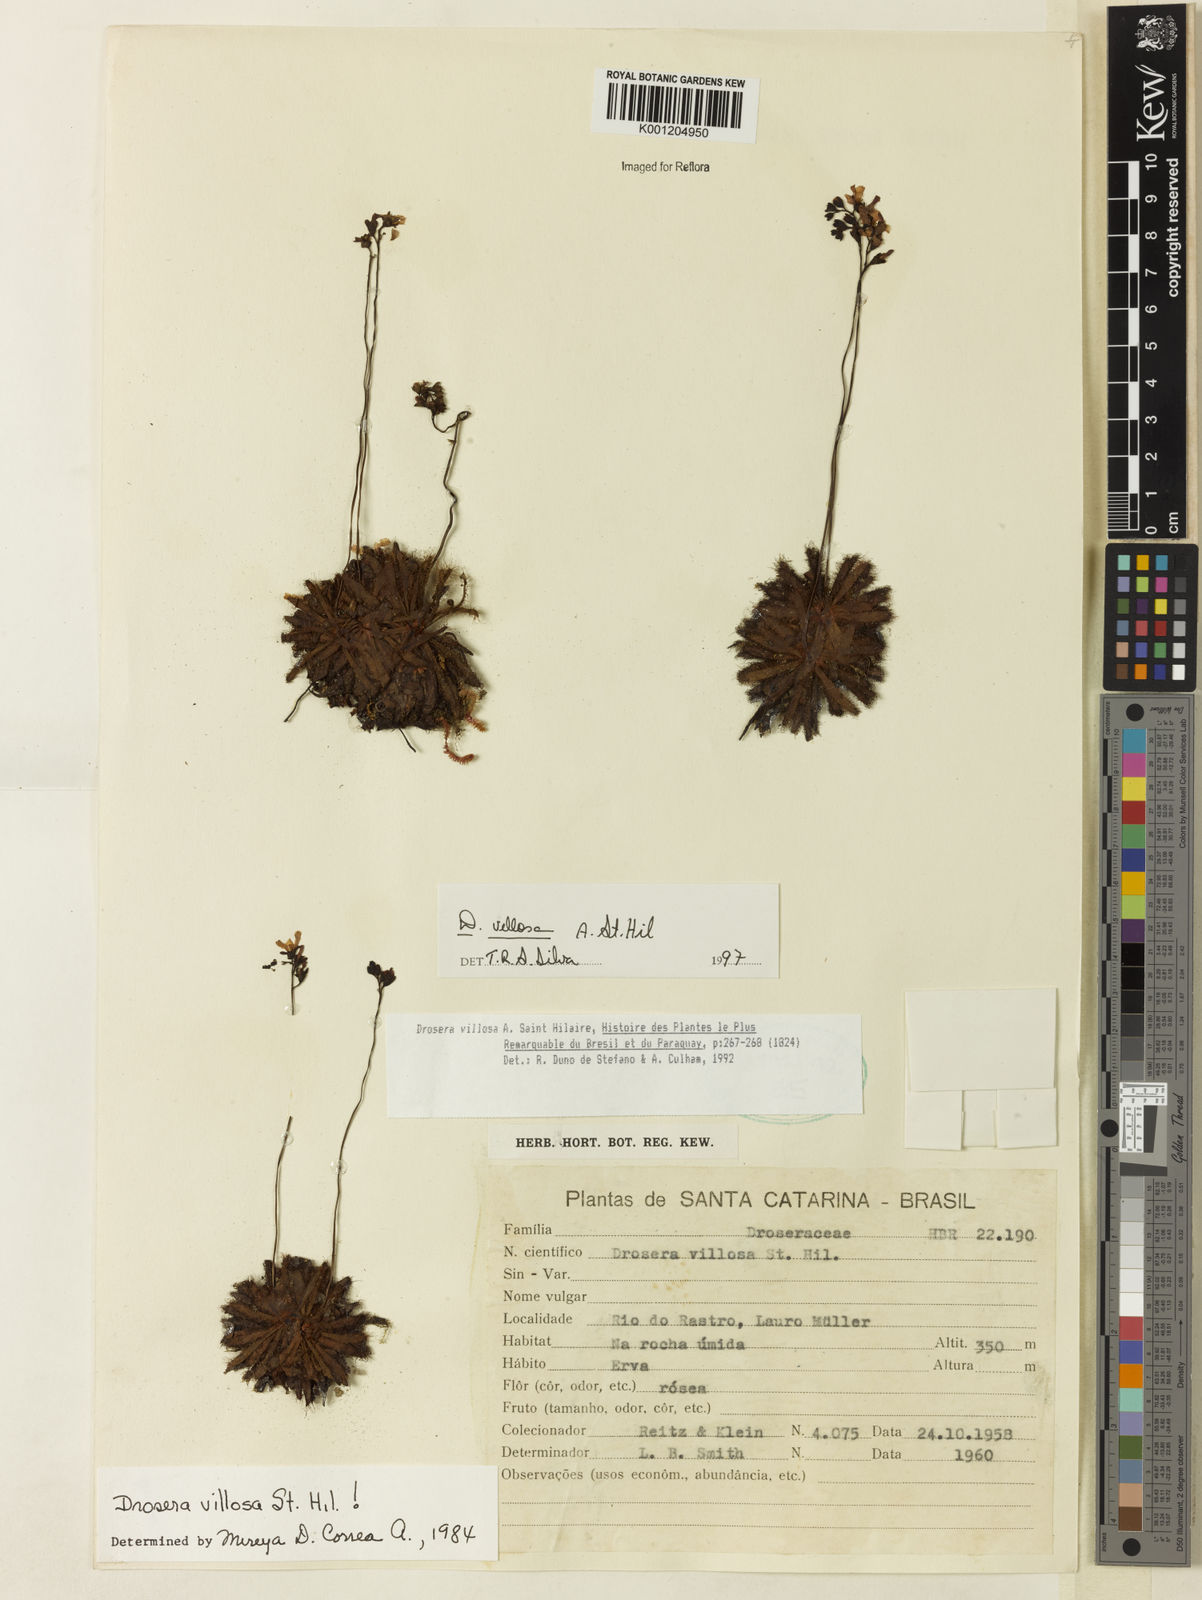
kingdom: Plantae
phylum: Tracheophyta
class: Magnoliopsida
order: Caryophyllales
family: Droseraceae
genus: Drosera
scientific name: Drosera villosa
